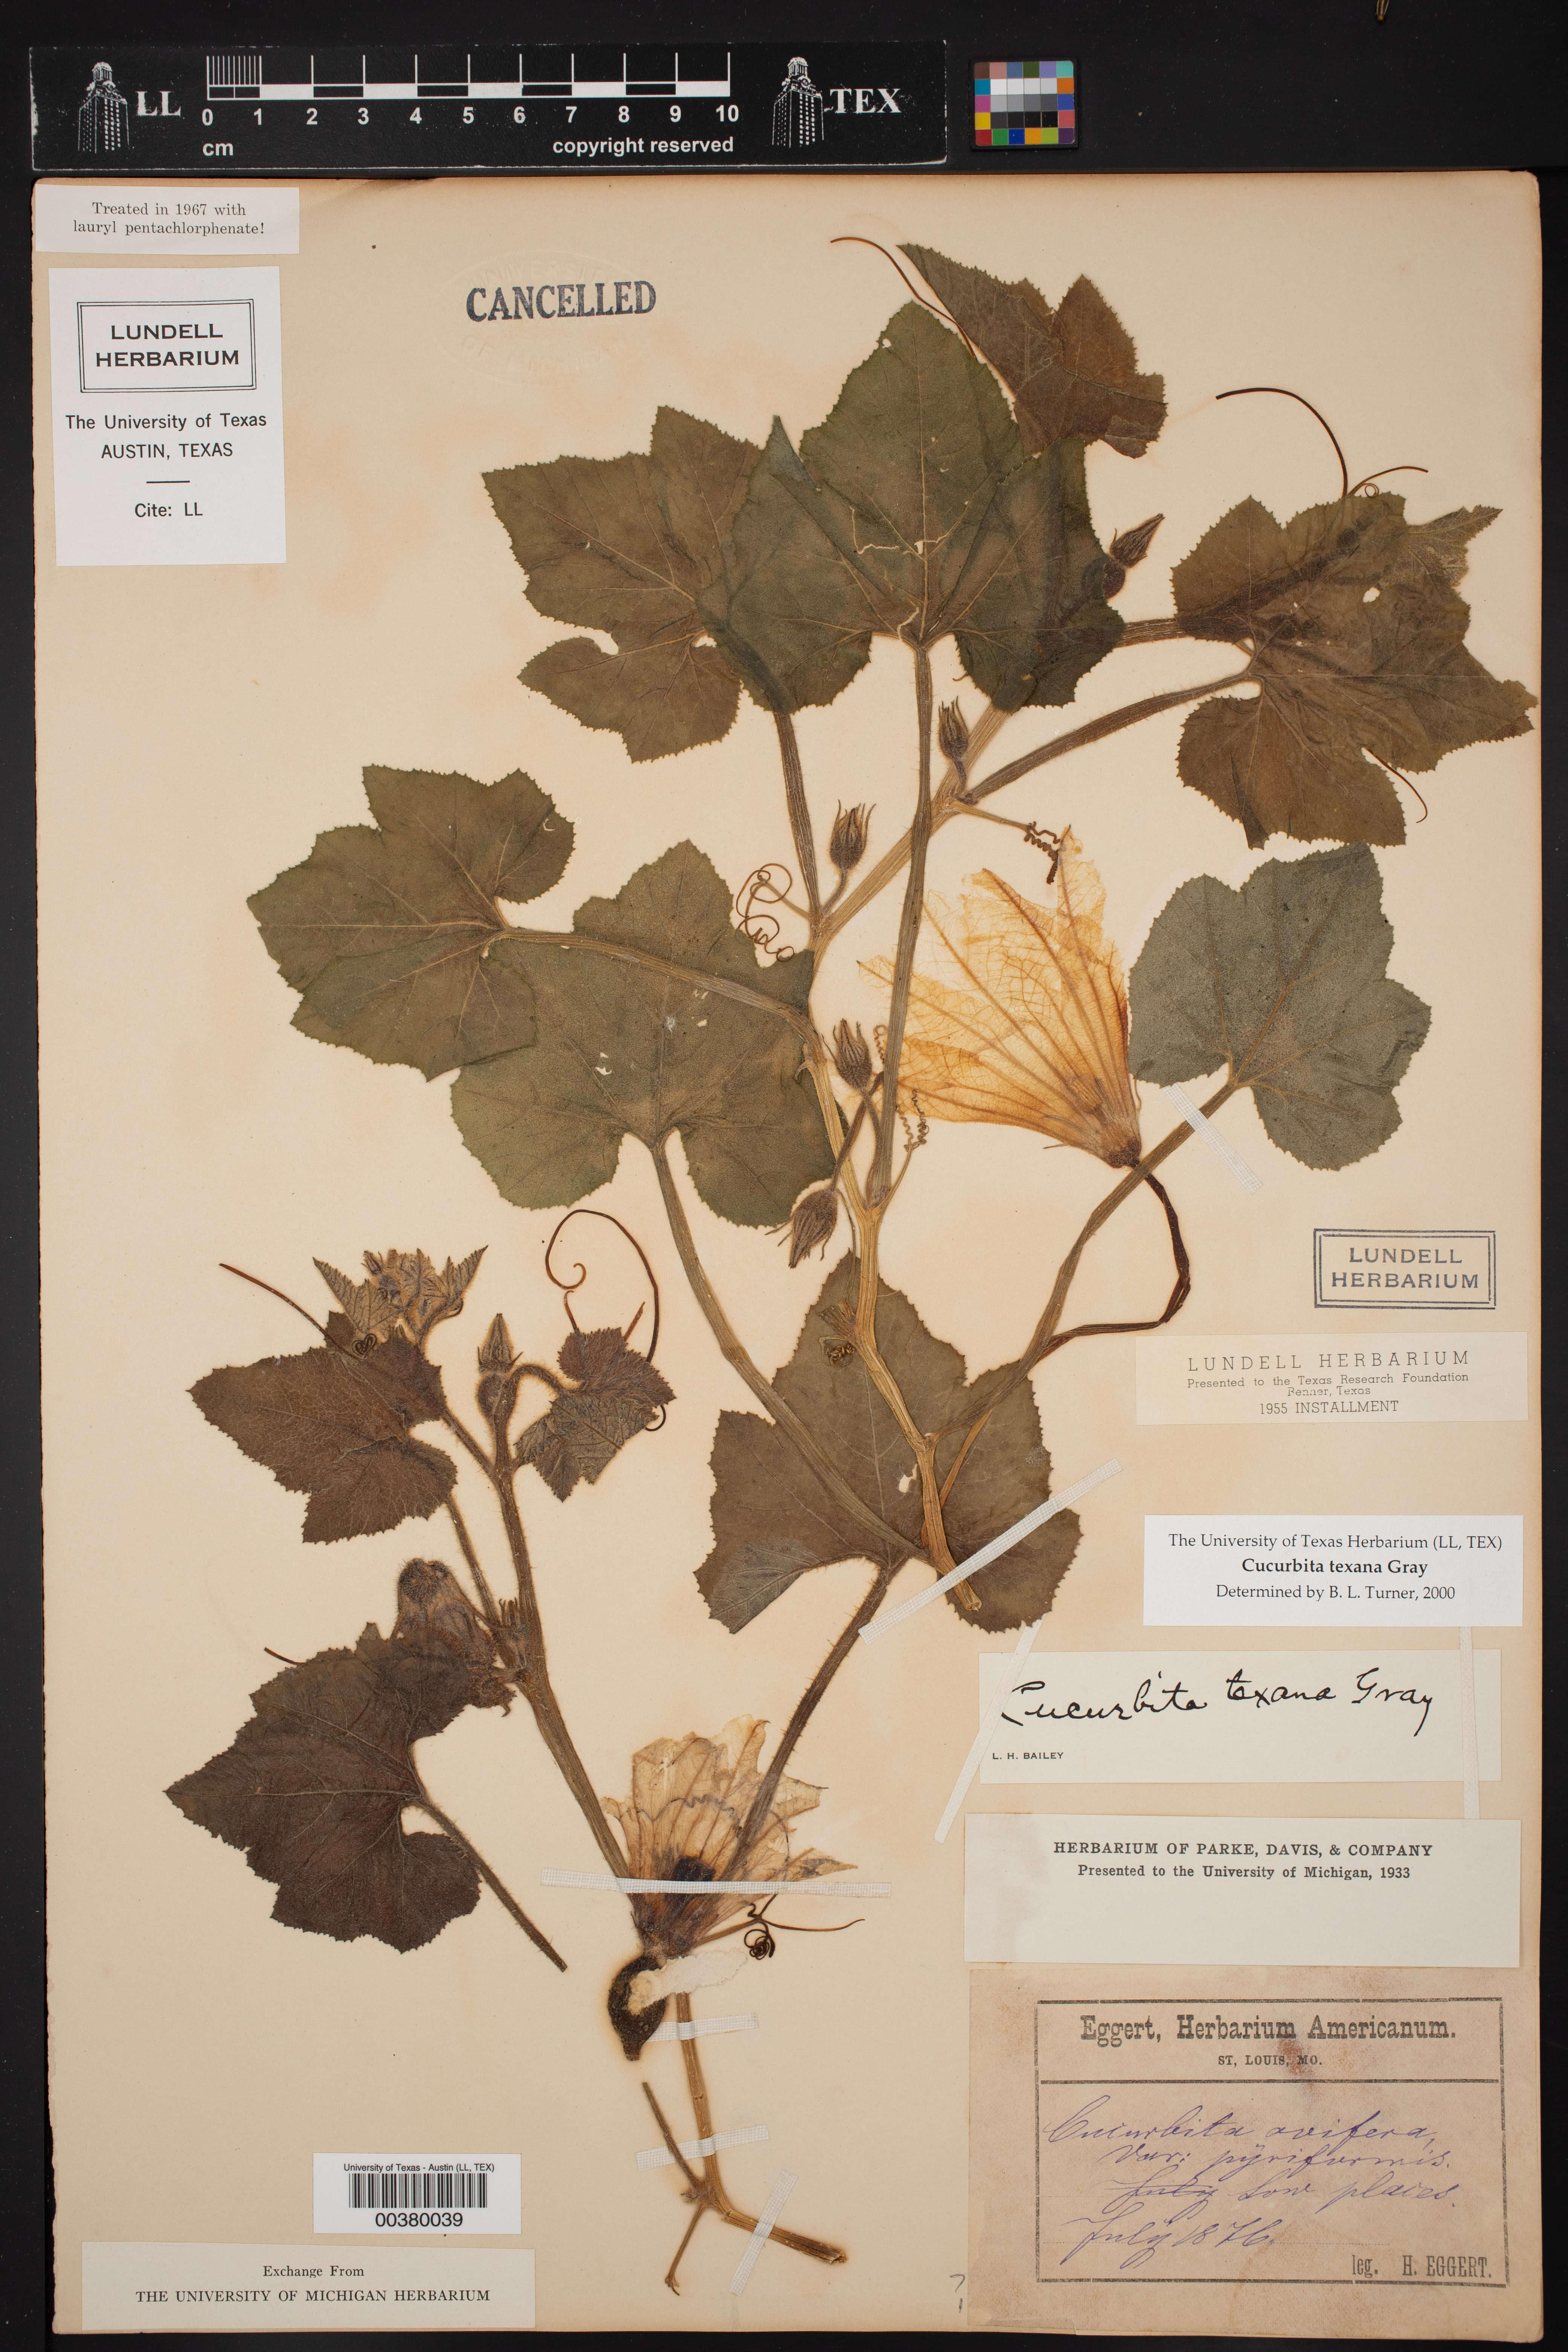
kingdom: Plantae
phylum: Tracheophyta
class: Magnoliopsida
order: Cucurbitales
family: Cucurbitaceae
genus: Cucurbita
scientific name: Cucurbita melopepo
